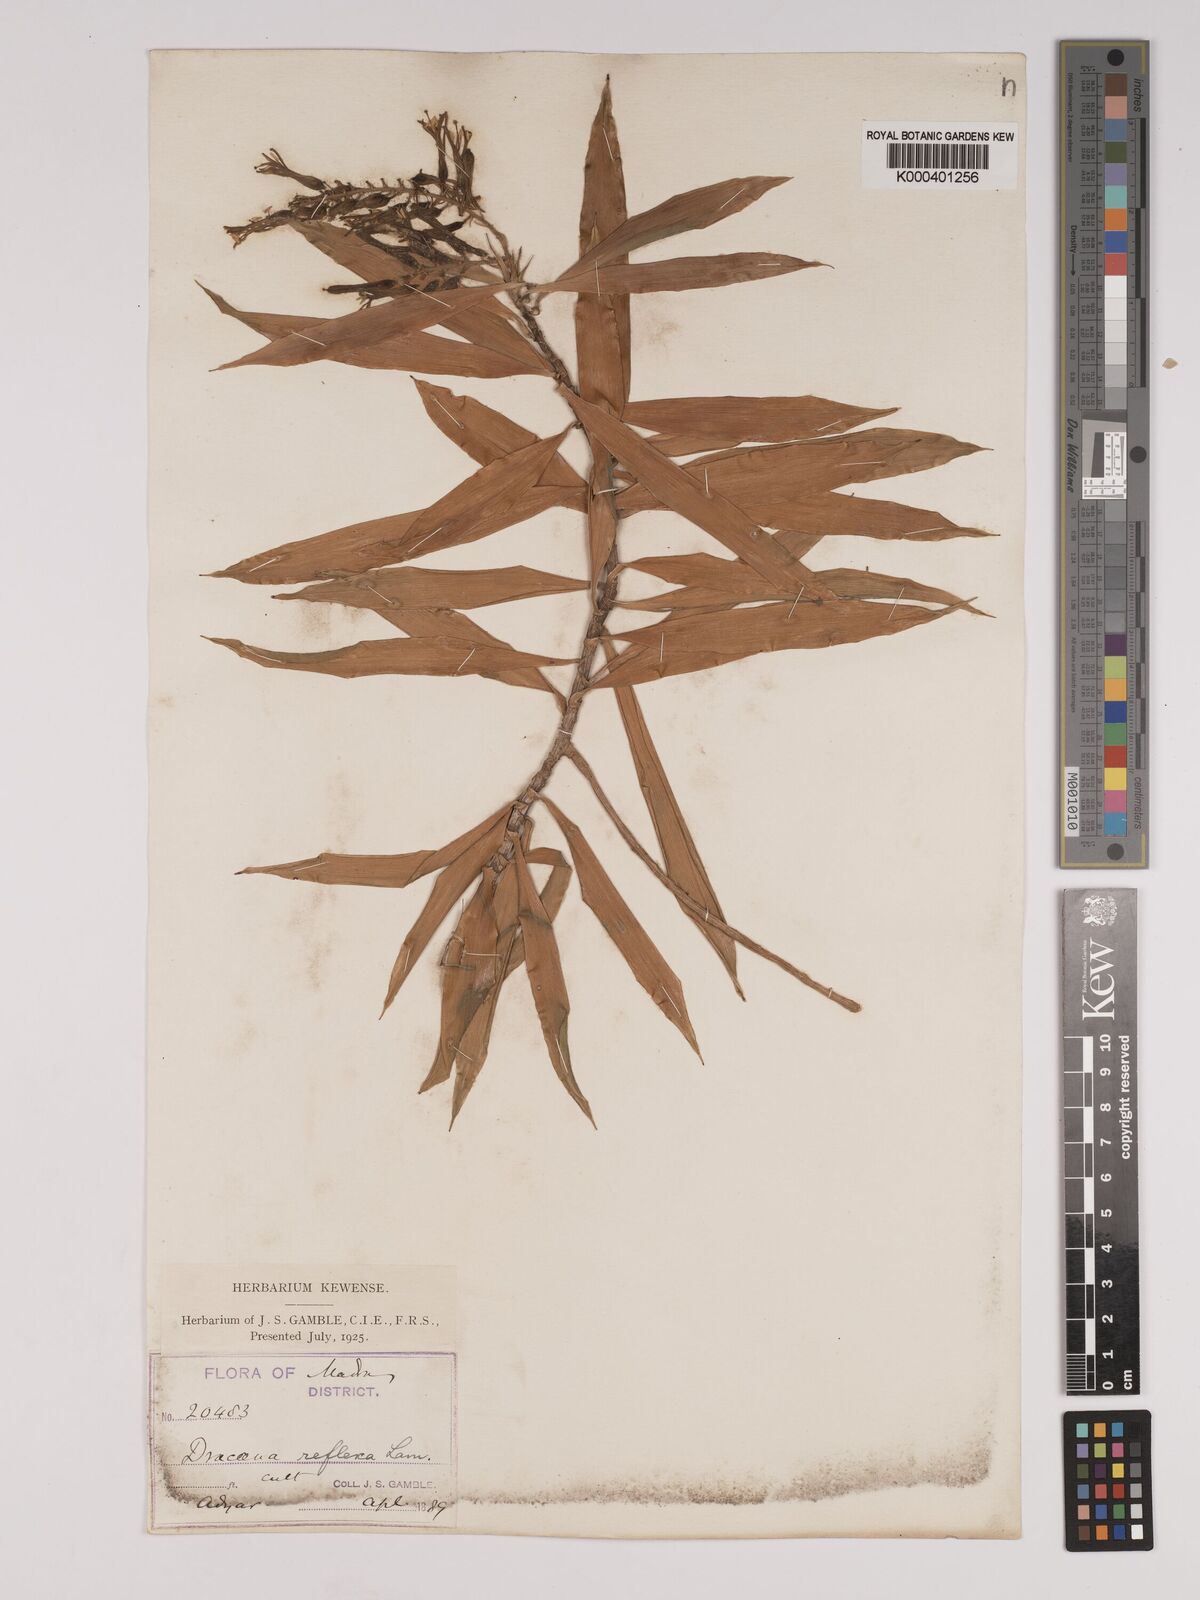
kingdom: Plantae
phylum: Tracheophyta
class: Liliopsida
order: Asparagales
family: Asparagaceae
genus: Dracaena
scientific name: Dracaena reflexa
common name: Song-of-india
